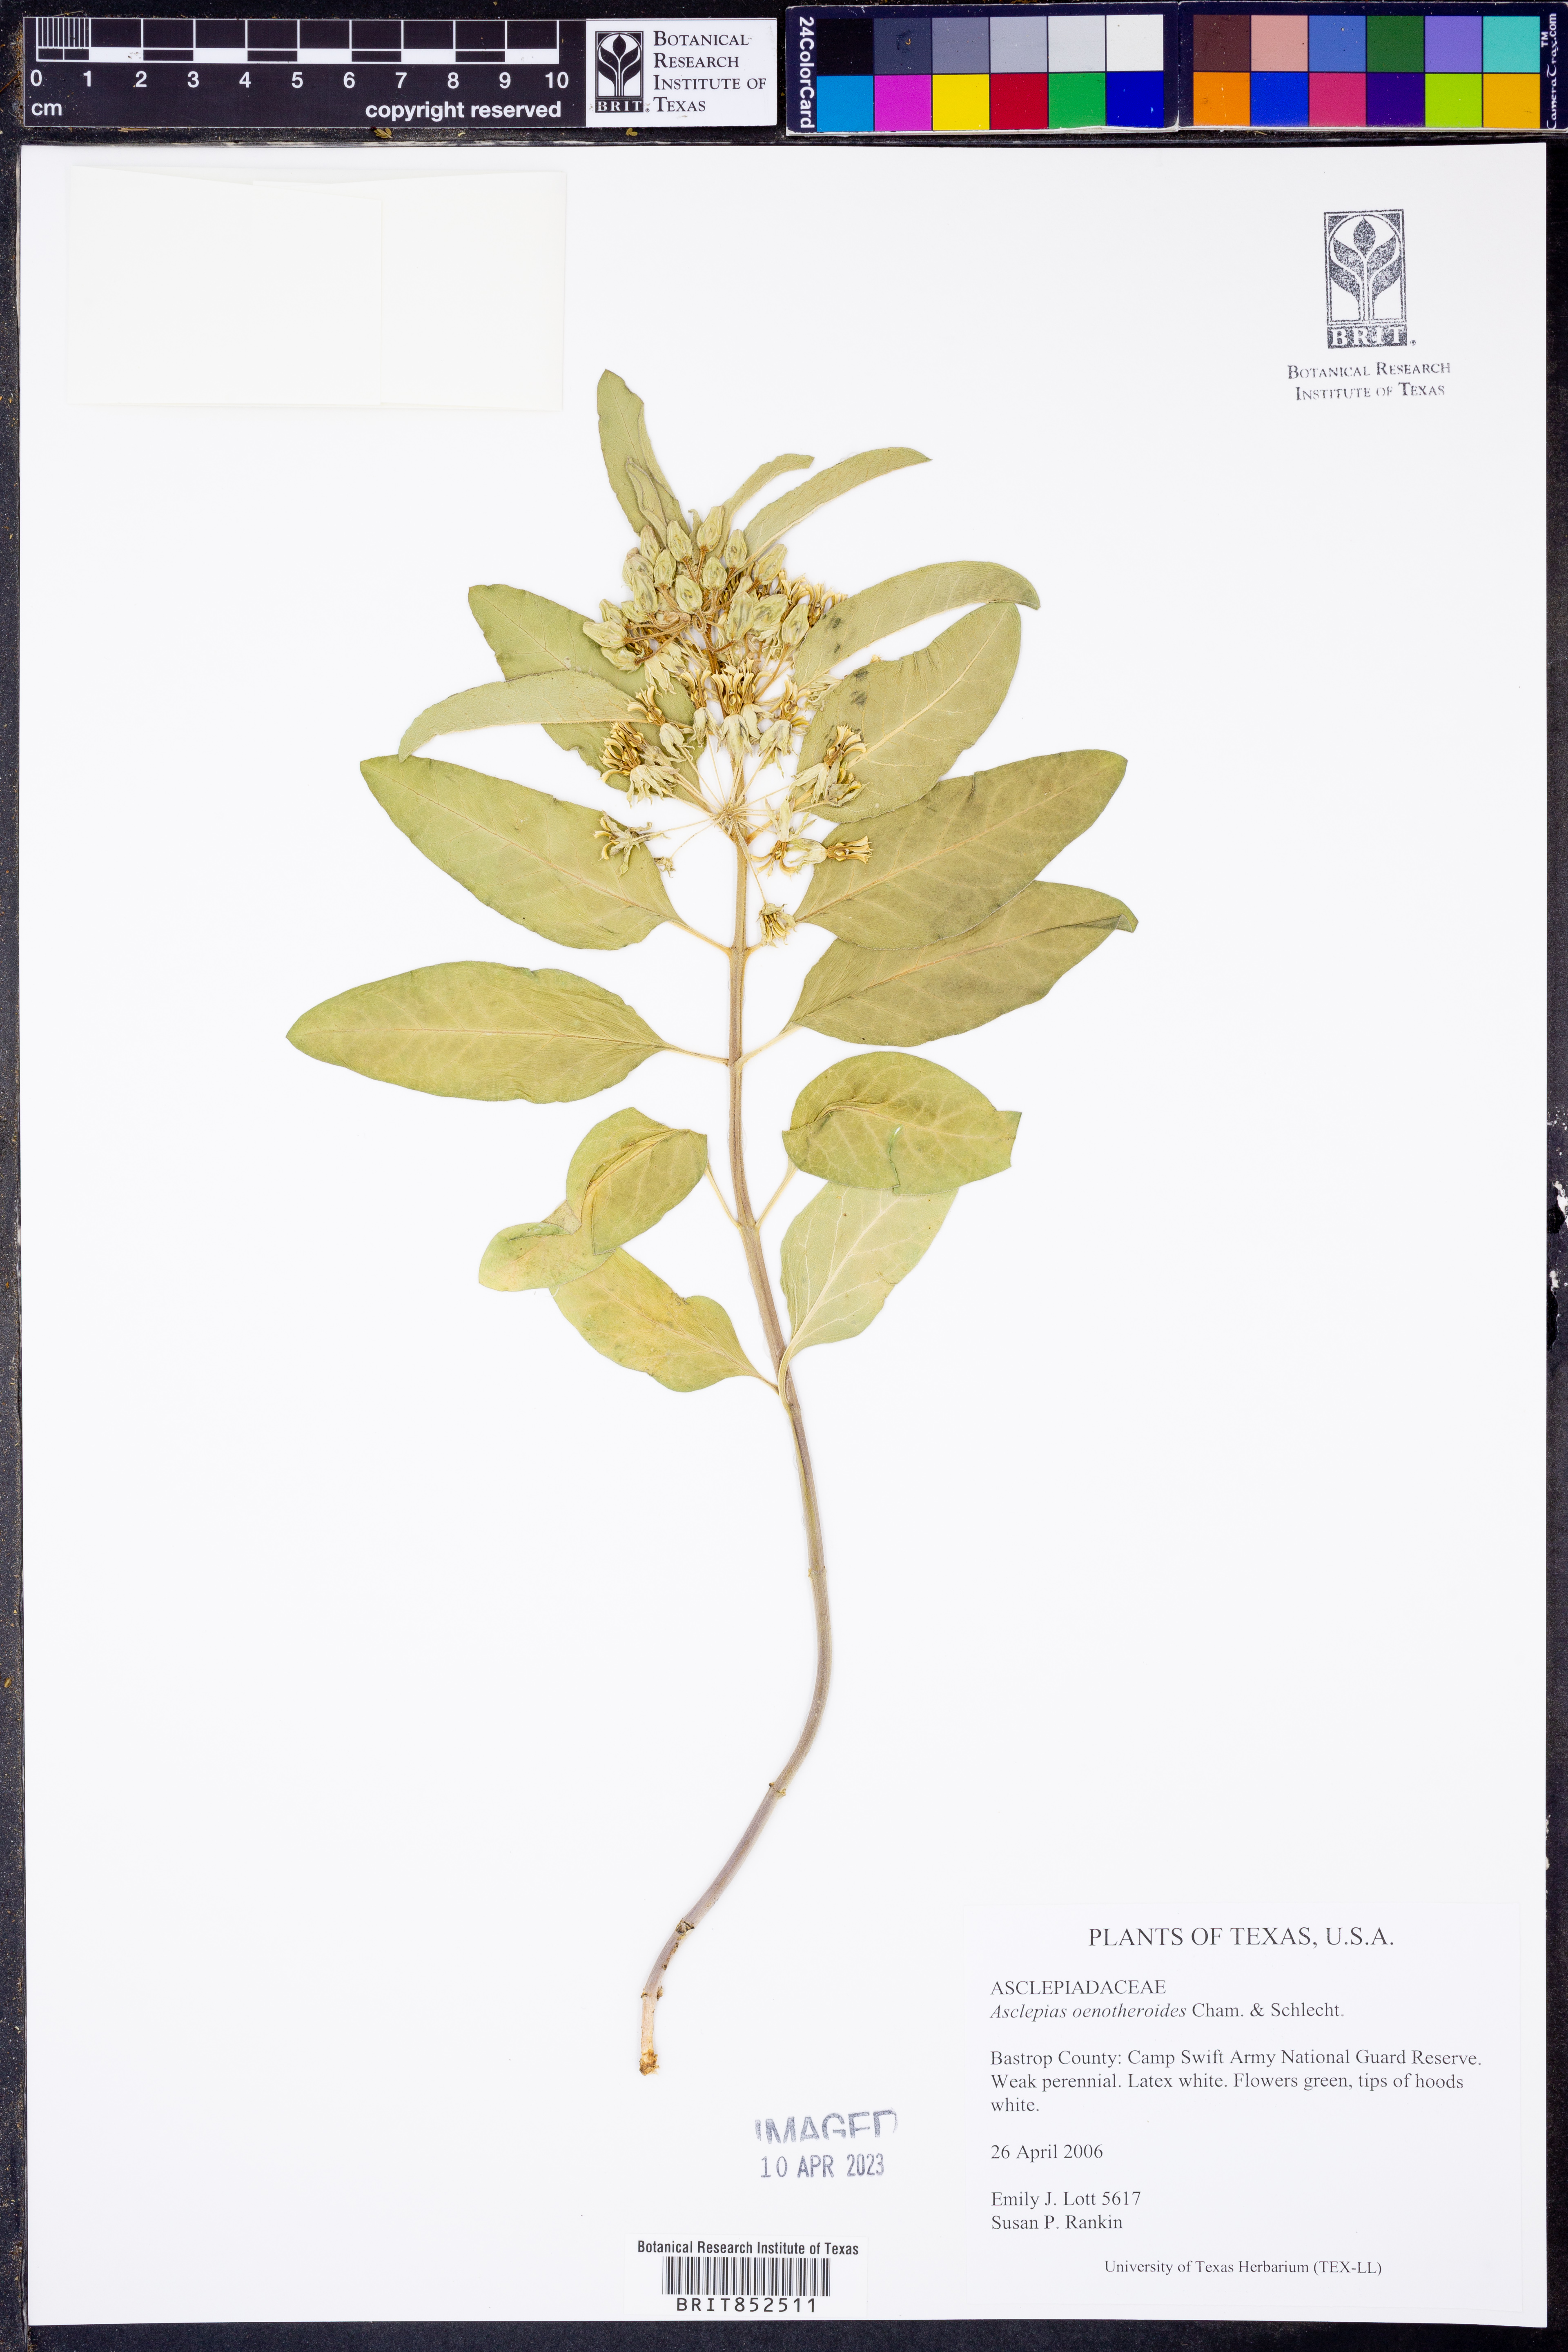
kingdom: Plantae
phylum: Tracheophyta
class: Magnoliopsida
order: Gentianales
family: Apocynaceae
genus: Asclepias
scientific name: Asclepias oenotheroides
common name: Zizotes milkweed
